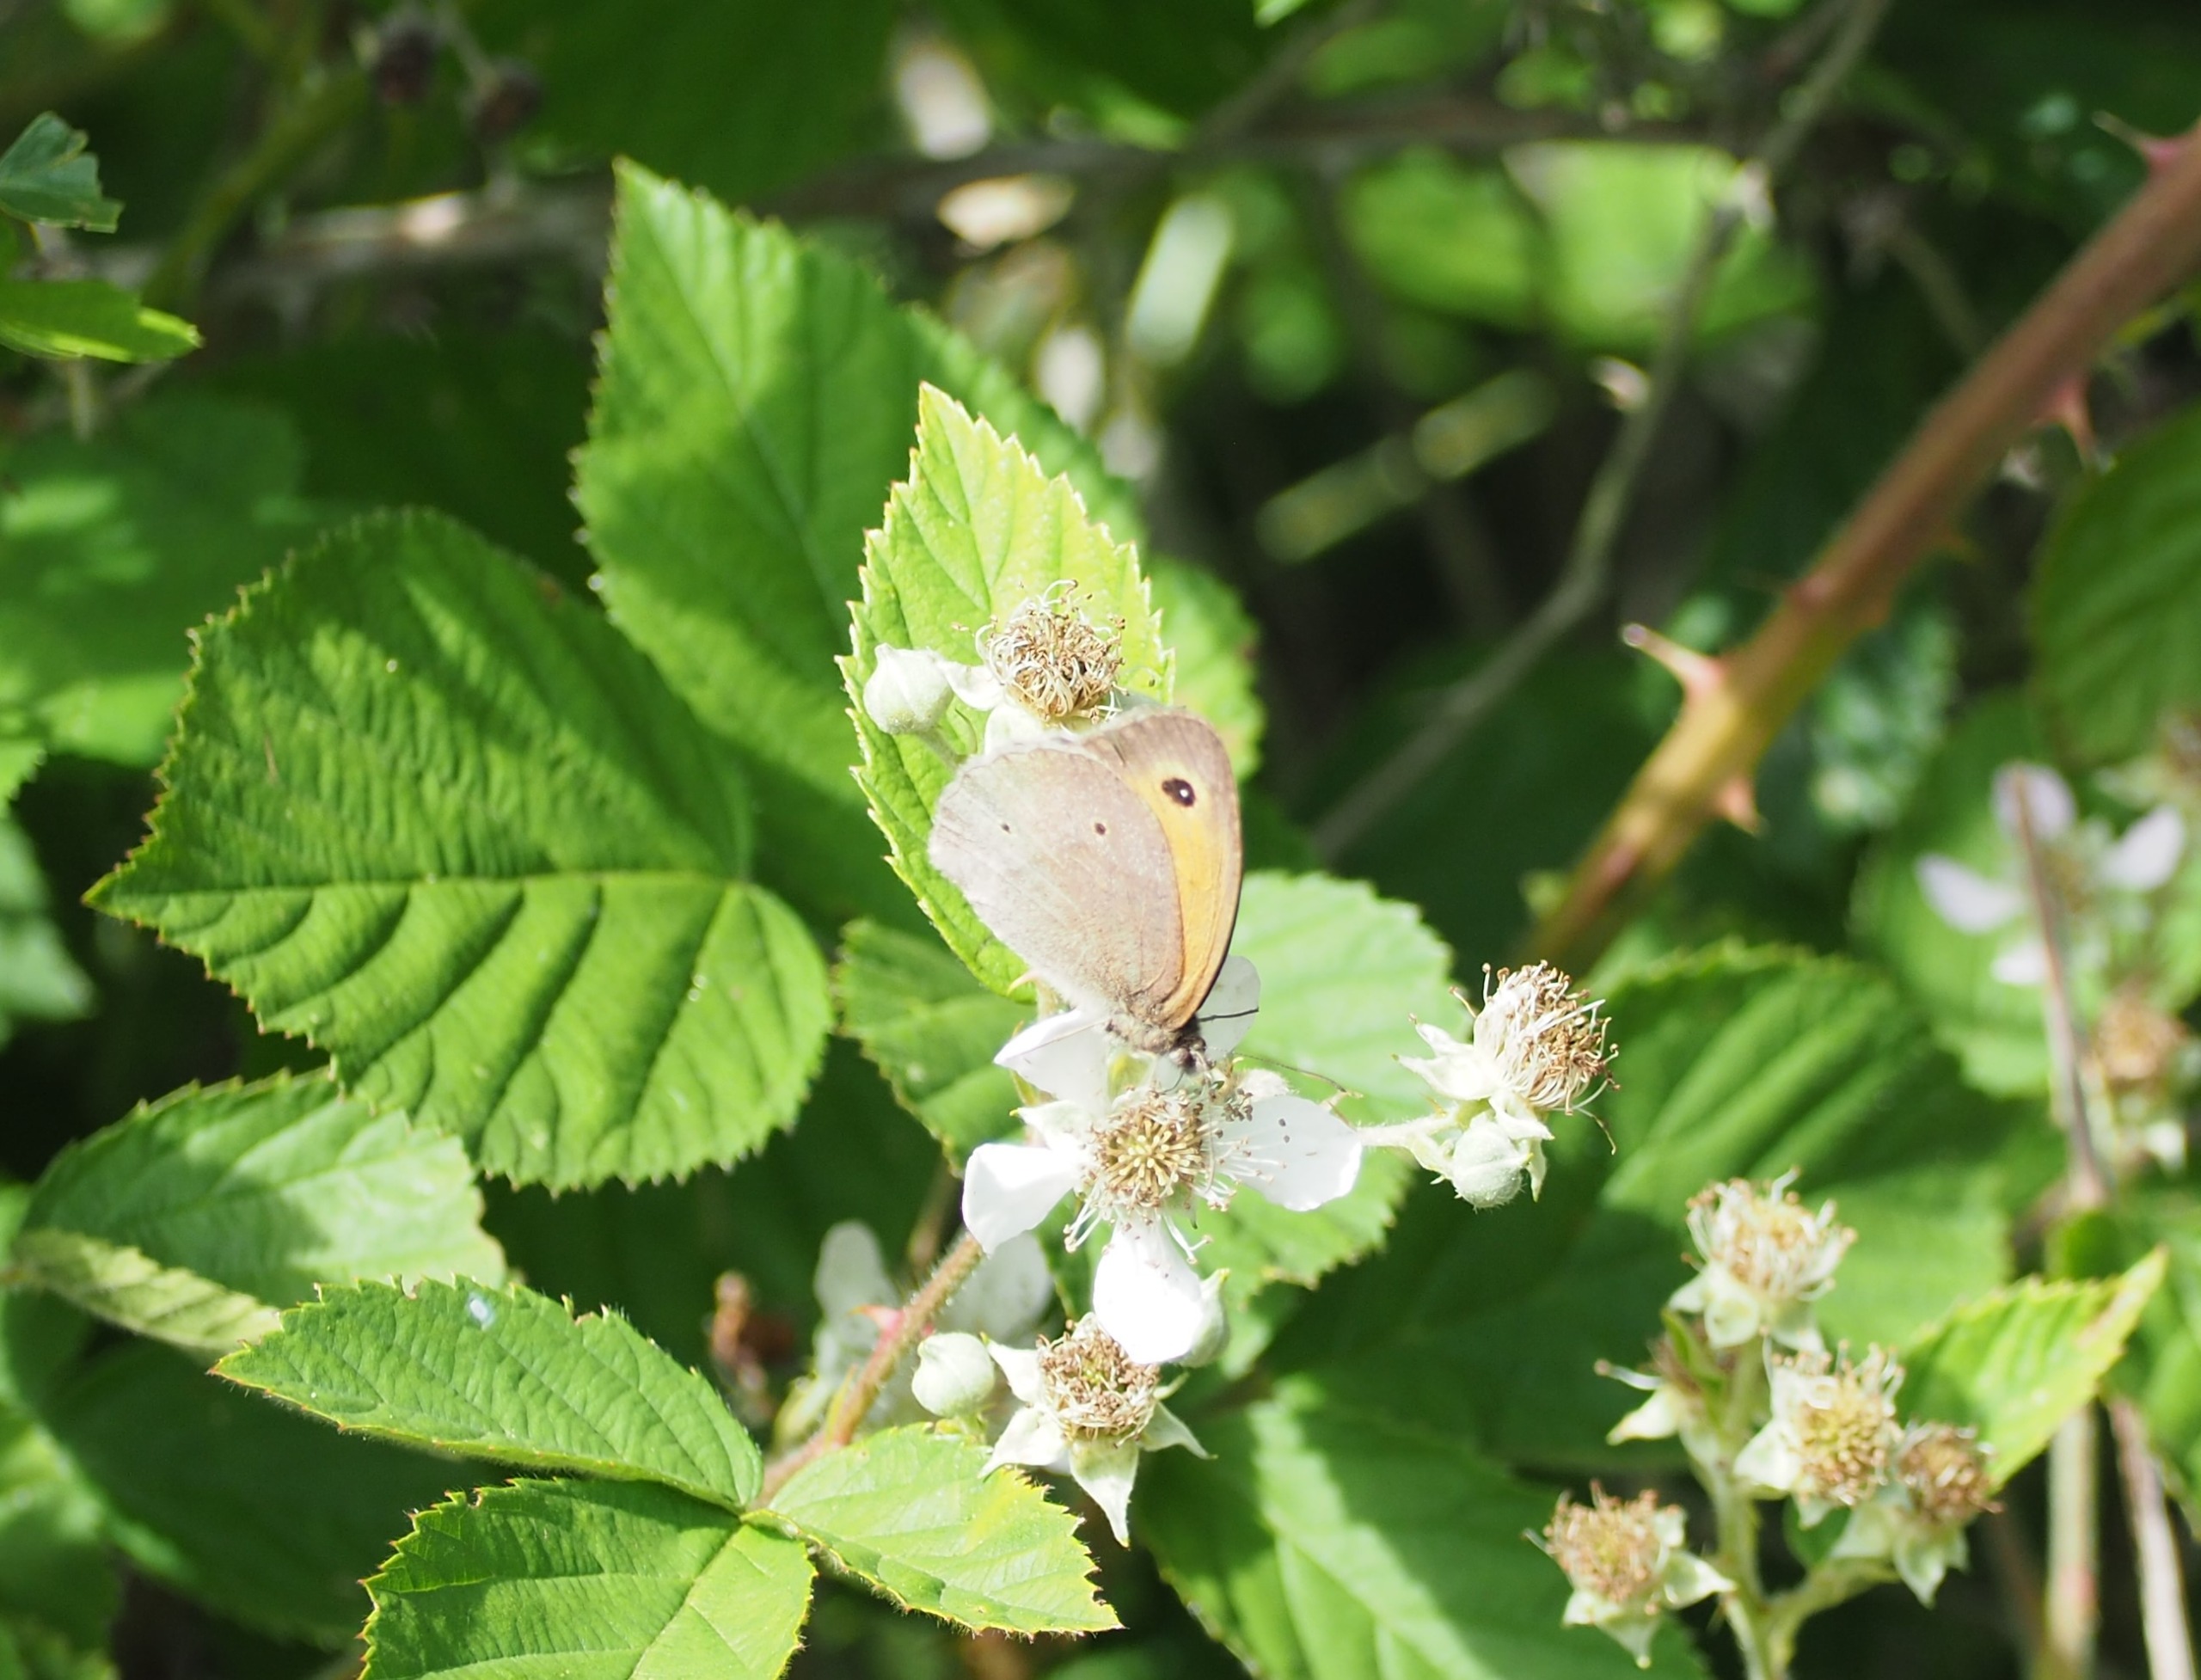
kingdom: Animalia
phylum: Arthropoda
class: Insecta
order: Lepidoptera
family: Nymphalidae
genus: Maniola
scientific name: Maniola jurtina
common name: Græsrandøje
